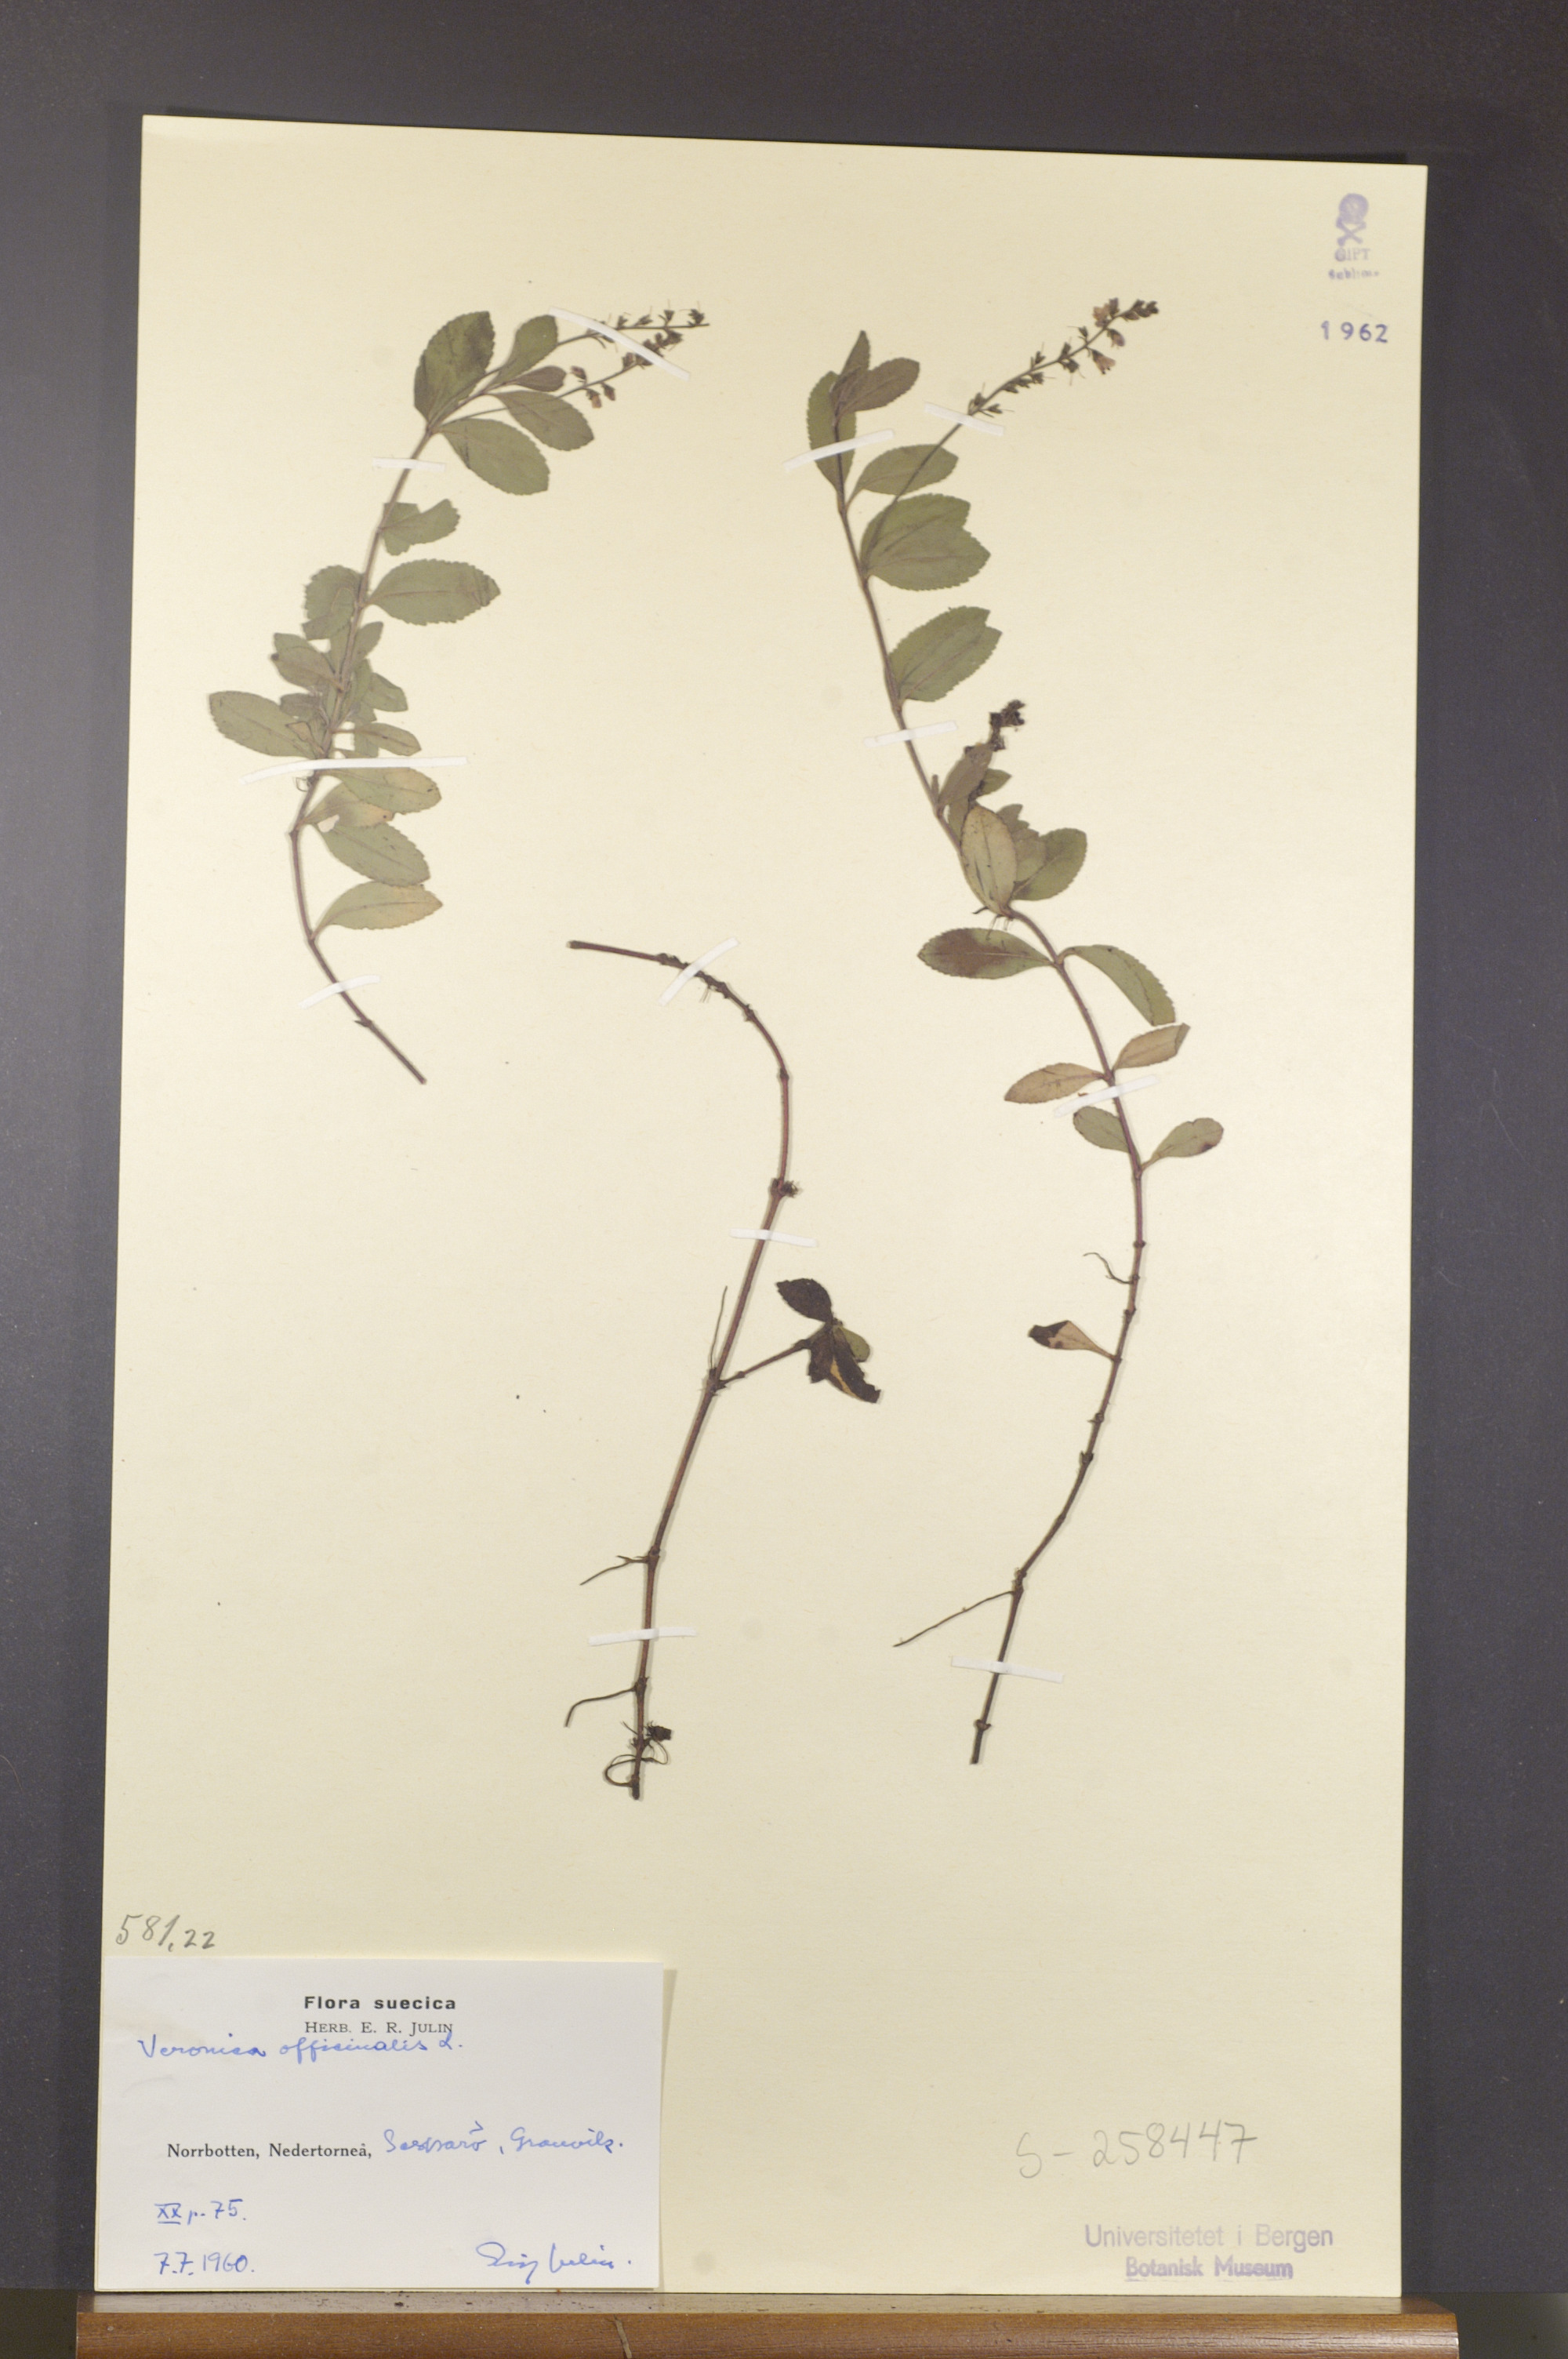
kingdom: Plantae
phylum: Tracheophyta
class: Magnoliopsida
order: Lamiales
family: Plantaginaceae
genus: Veronica
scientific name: Veronica officinalis
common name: Common speedwell
